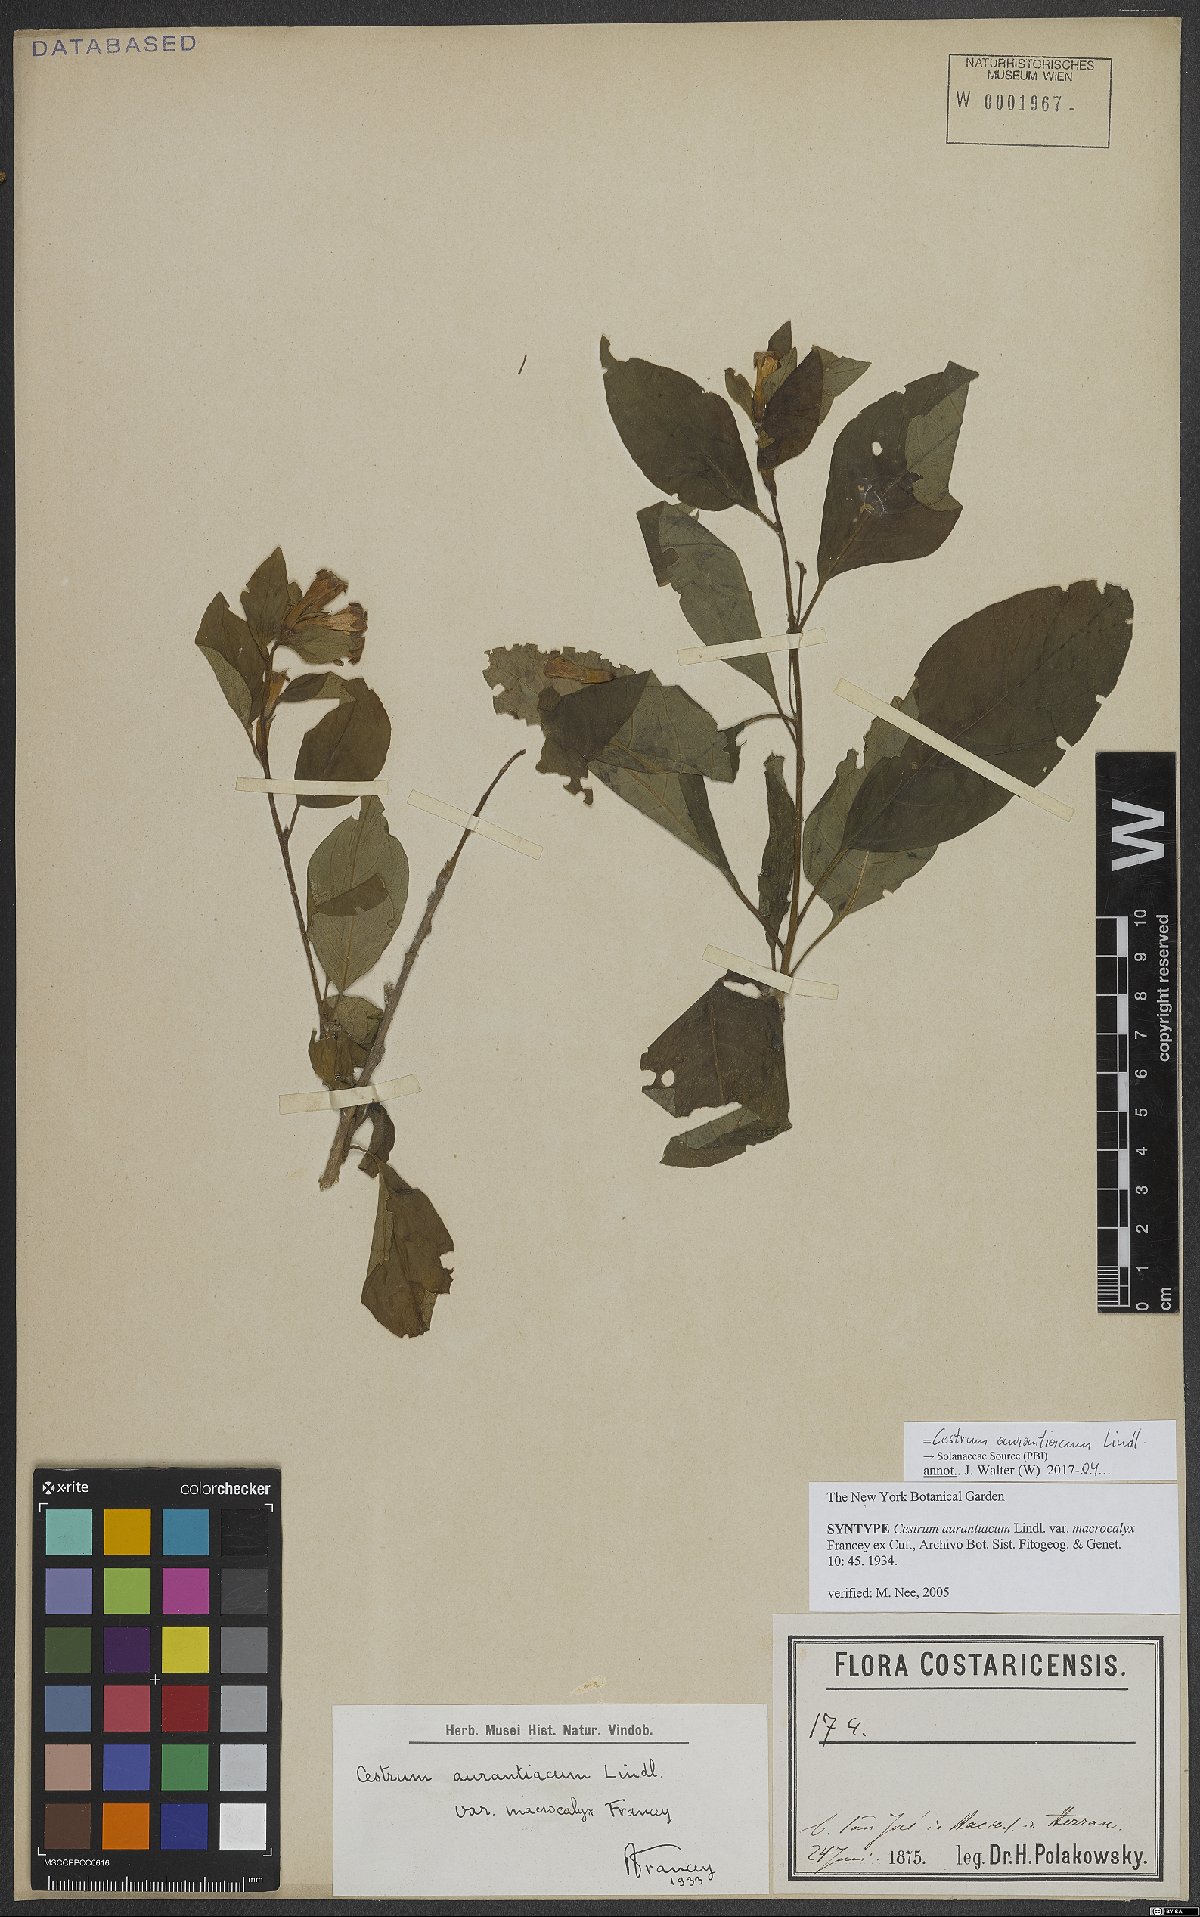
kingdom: Plantae
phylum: Tracheophyta
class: Magnoliopsida
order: Solanales
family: Solanaceae
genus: Cestrum
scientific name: Cestrum aurantiacum
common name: Orange cestrum
